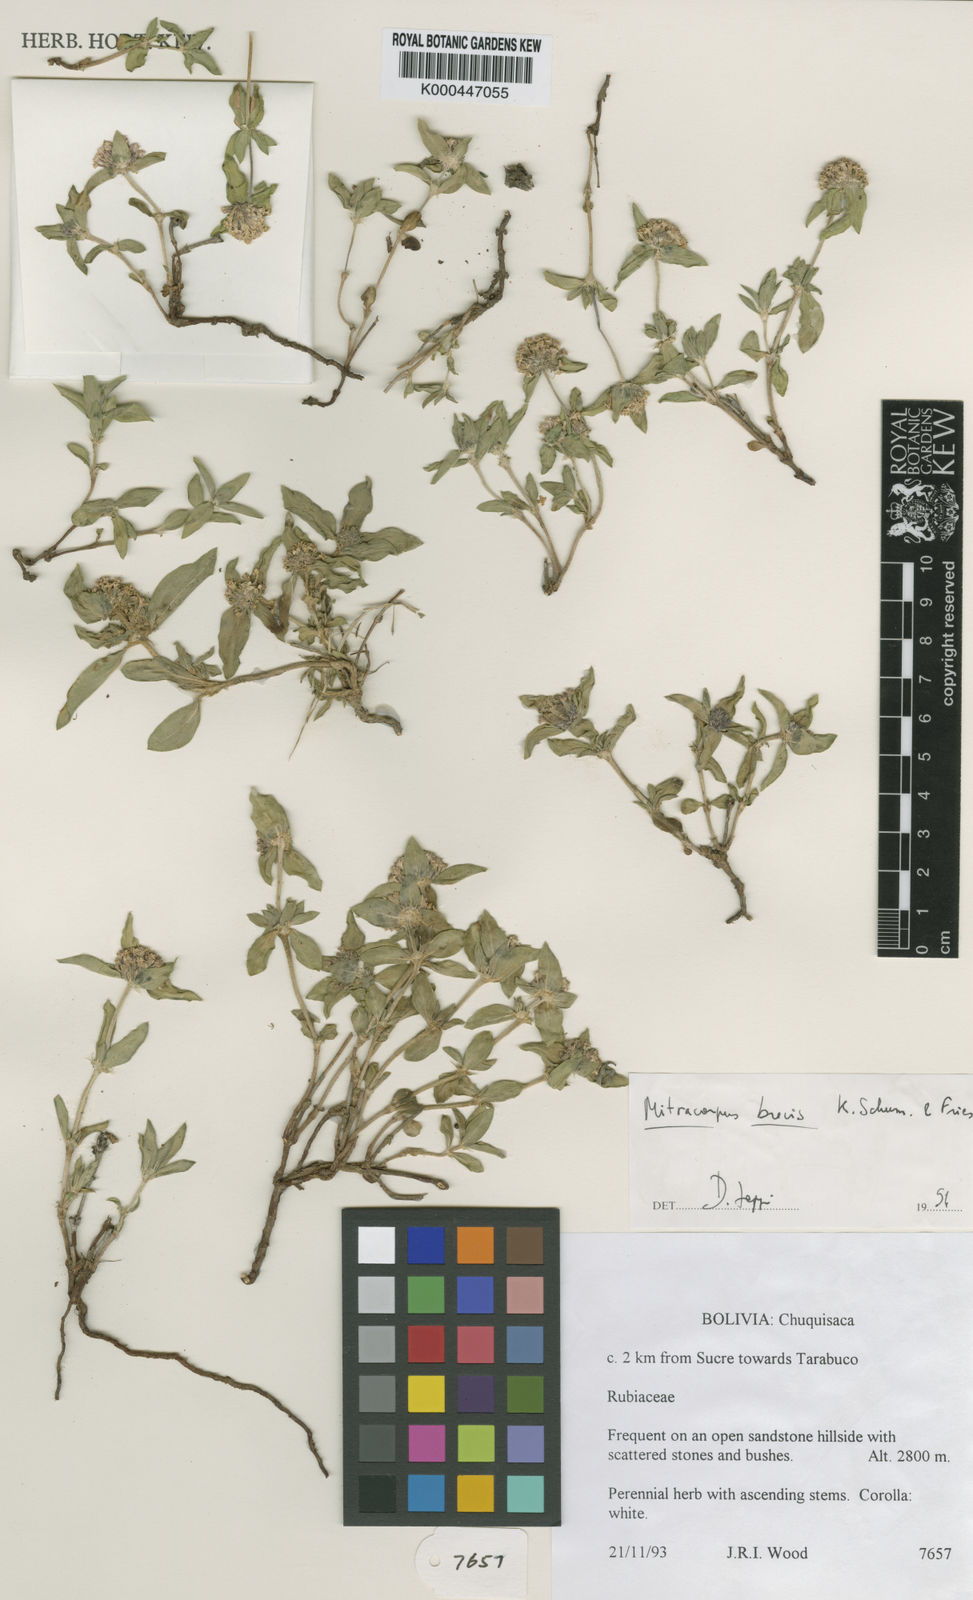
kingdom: Plantae
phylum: Tracheophyta
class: Magnoliopsida
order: Gentianales
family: Rubiaceae
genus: Mitracarpus
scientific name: Mitracarpus
